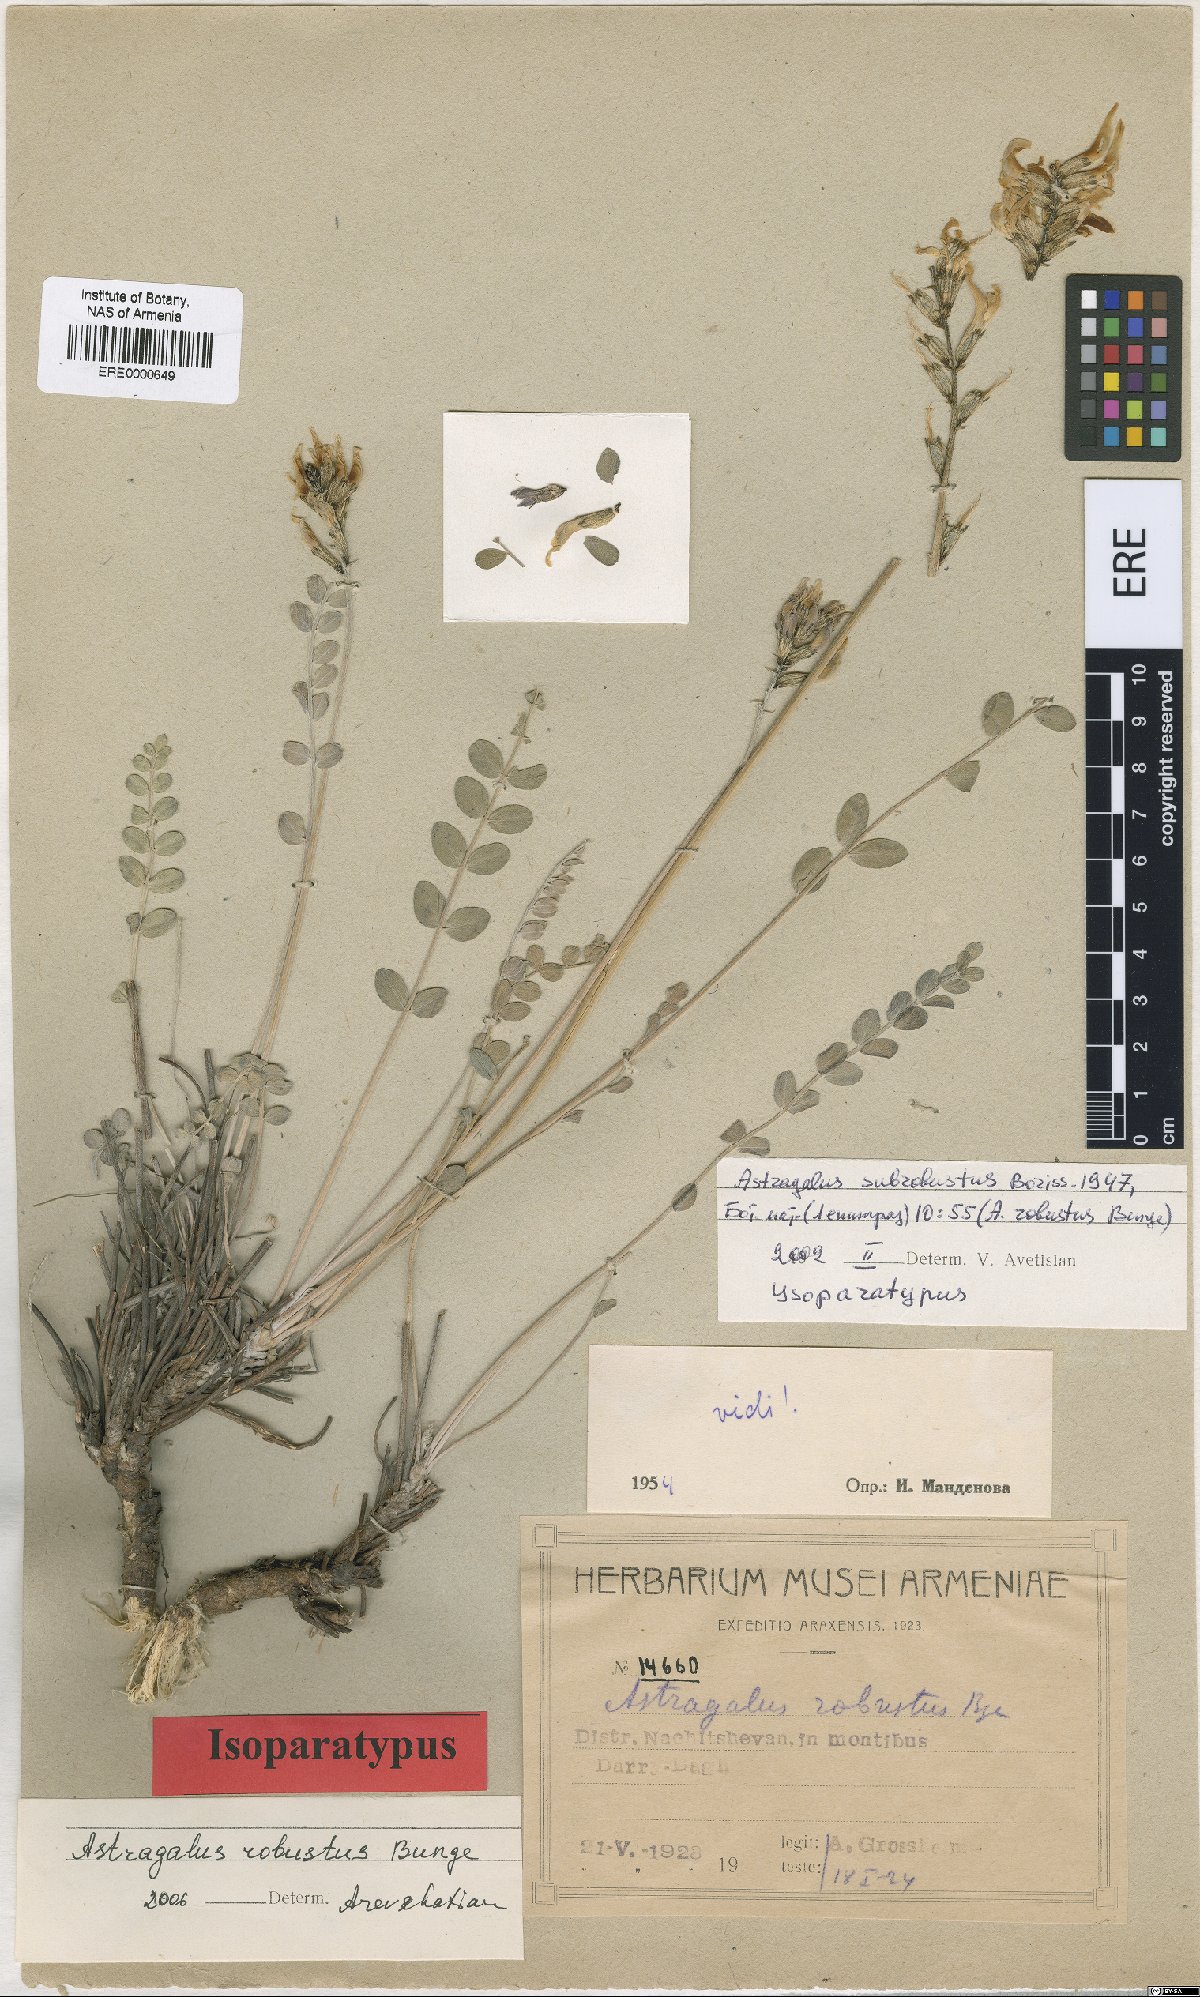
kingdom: Plantae
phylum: Tracheophyta
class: Magnoliopsida
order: Fabales
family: Fabaceae
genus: Astragalus
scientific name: Astragalus robustus
